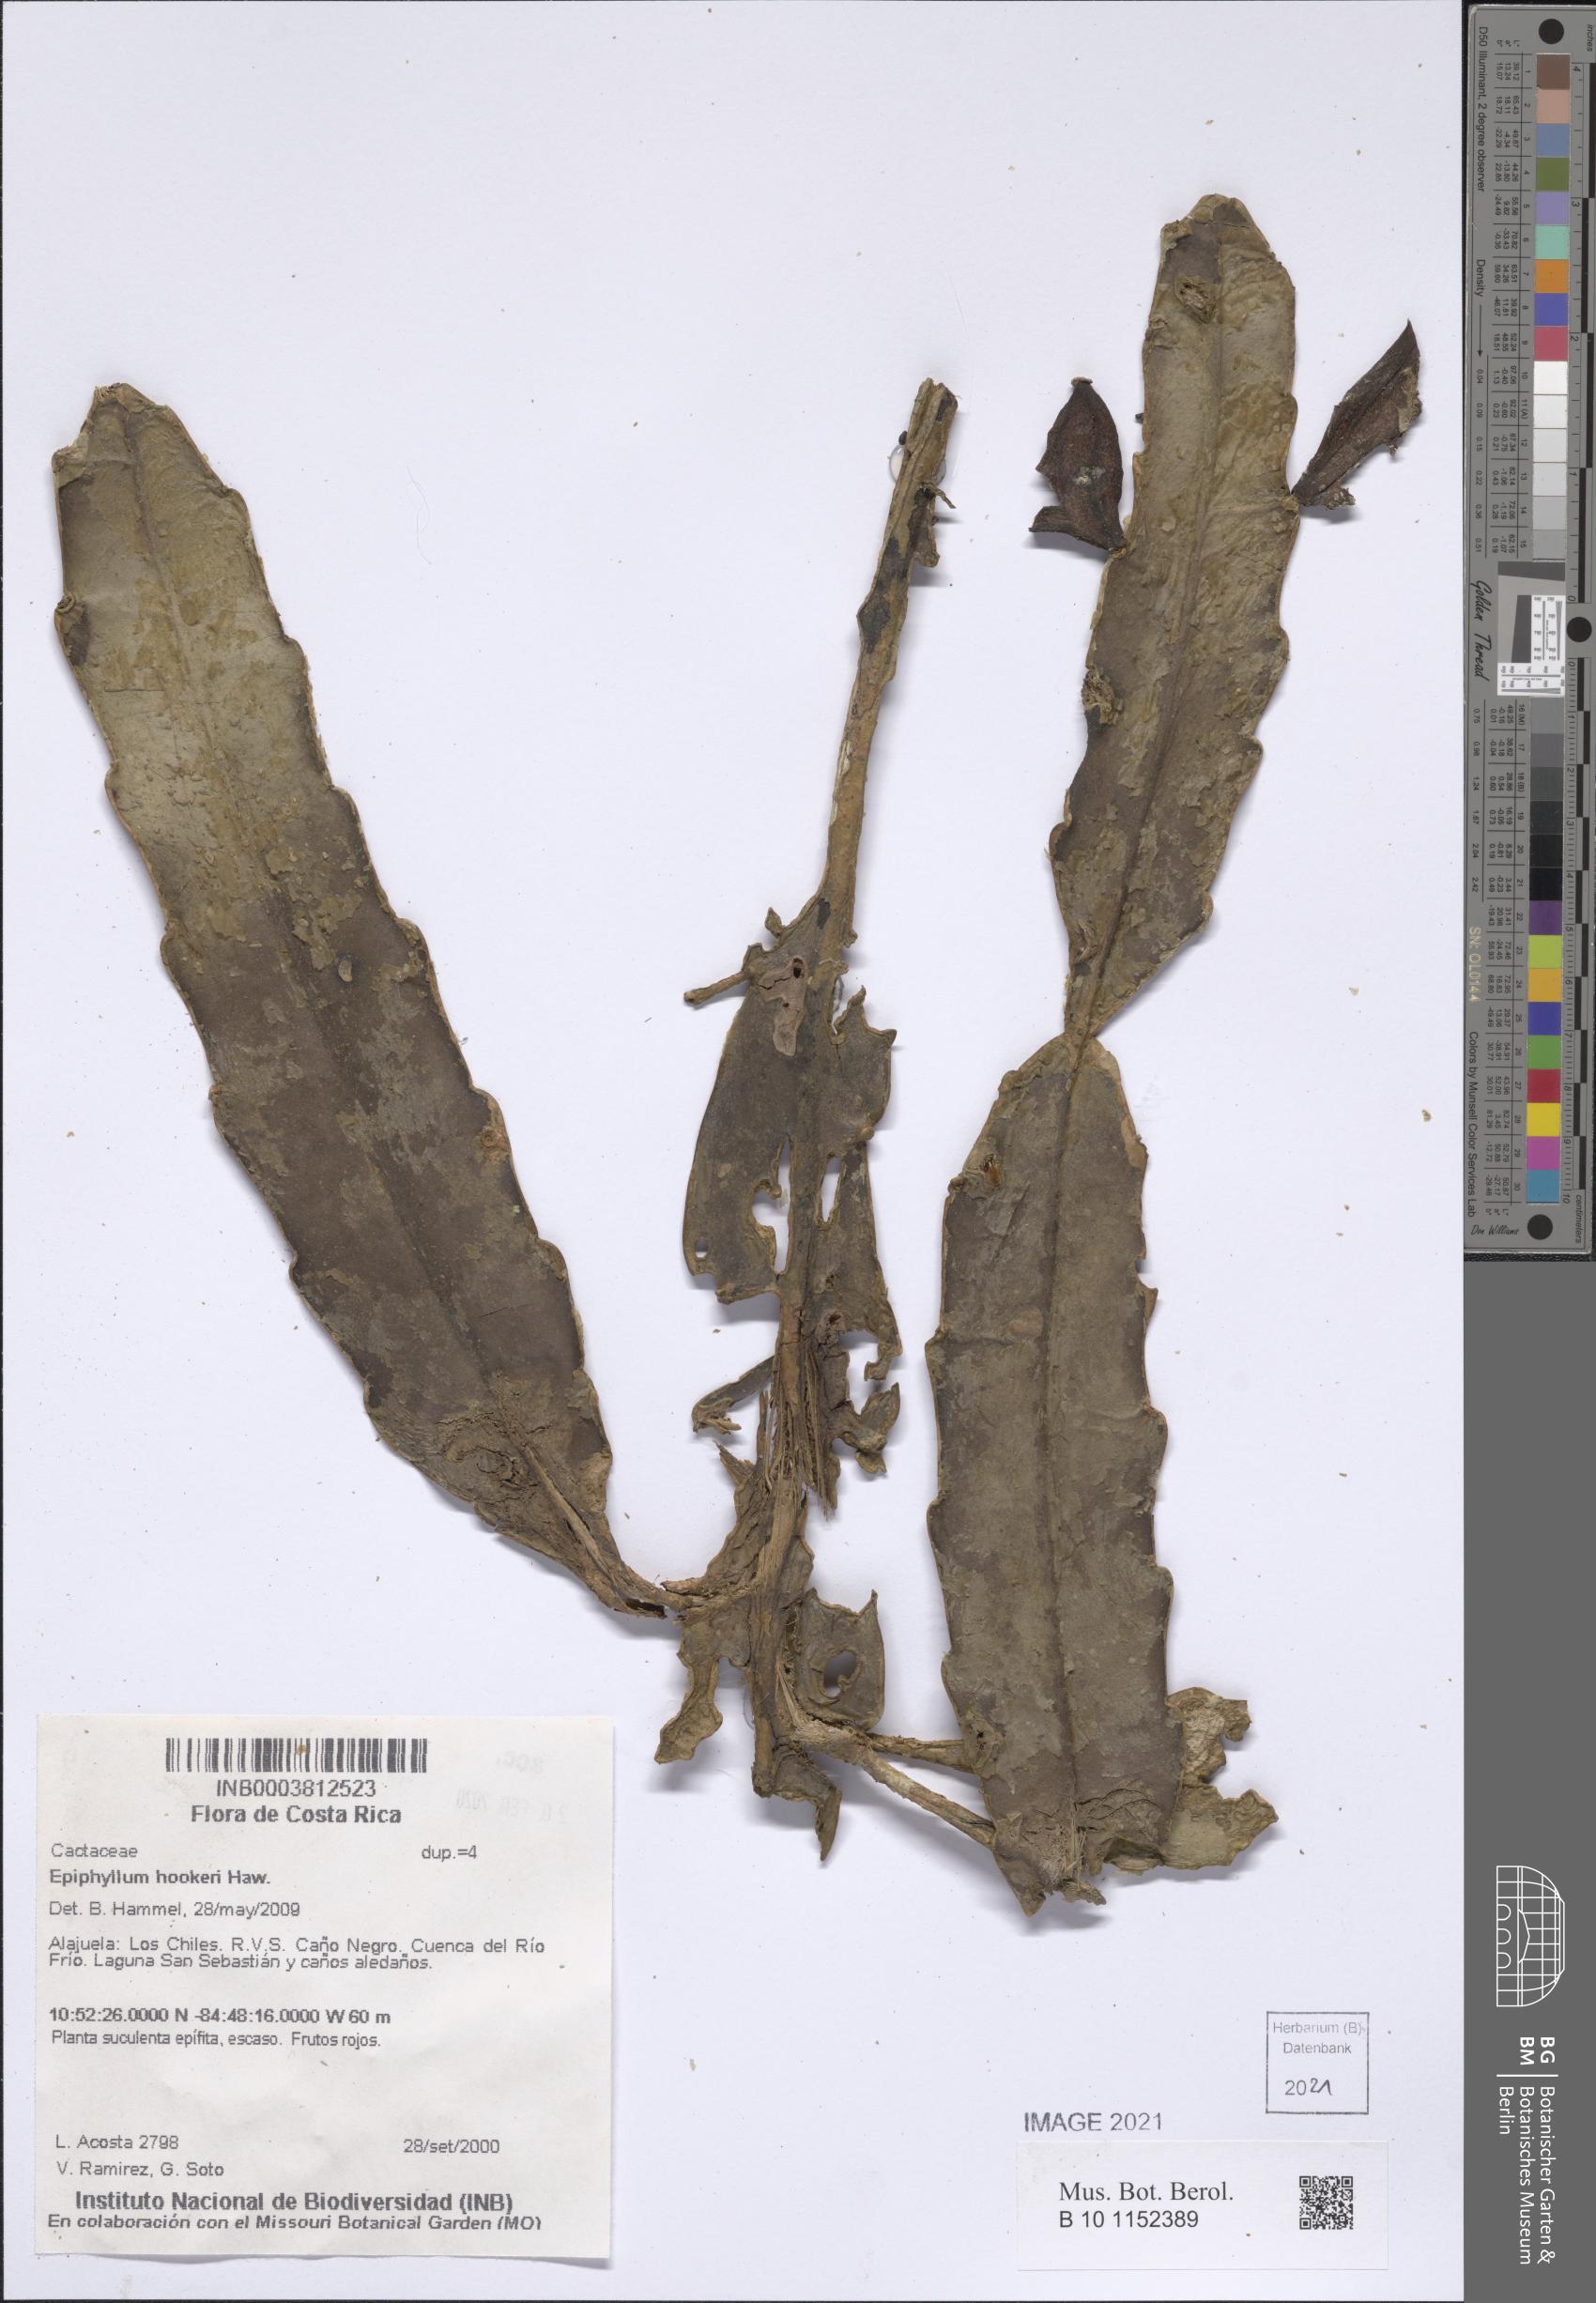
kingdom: Plantae
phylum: Tracheophyta
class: Magnoliopsida
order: Caryophyllales
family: Cactaceae
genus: Epiphyllum
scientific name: Epiphyllum hookeri
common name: Climbing cactus
